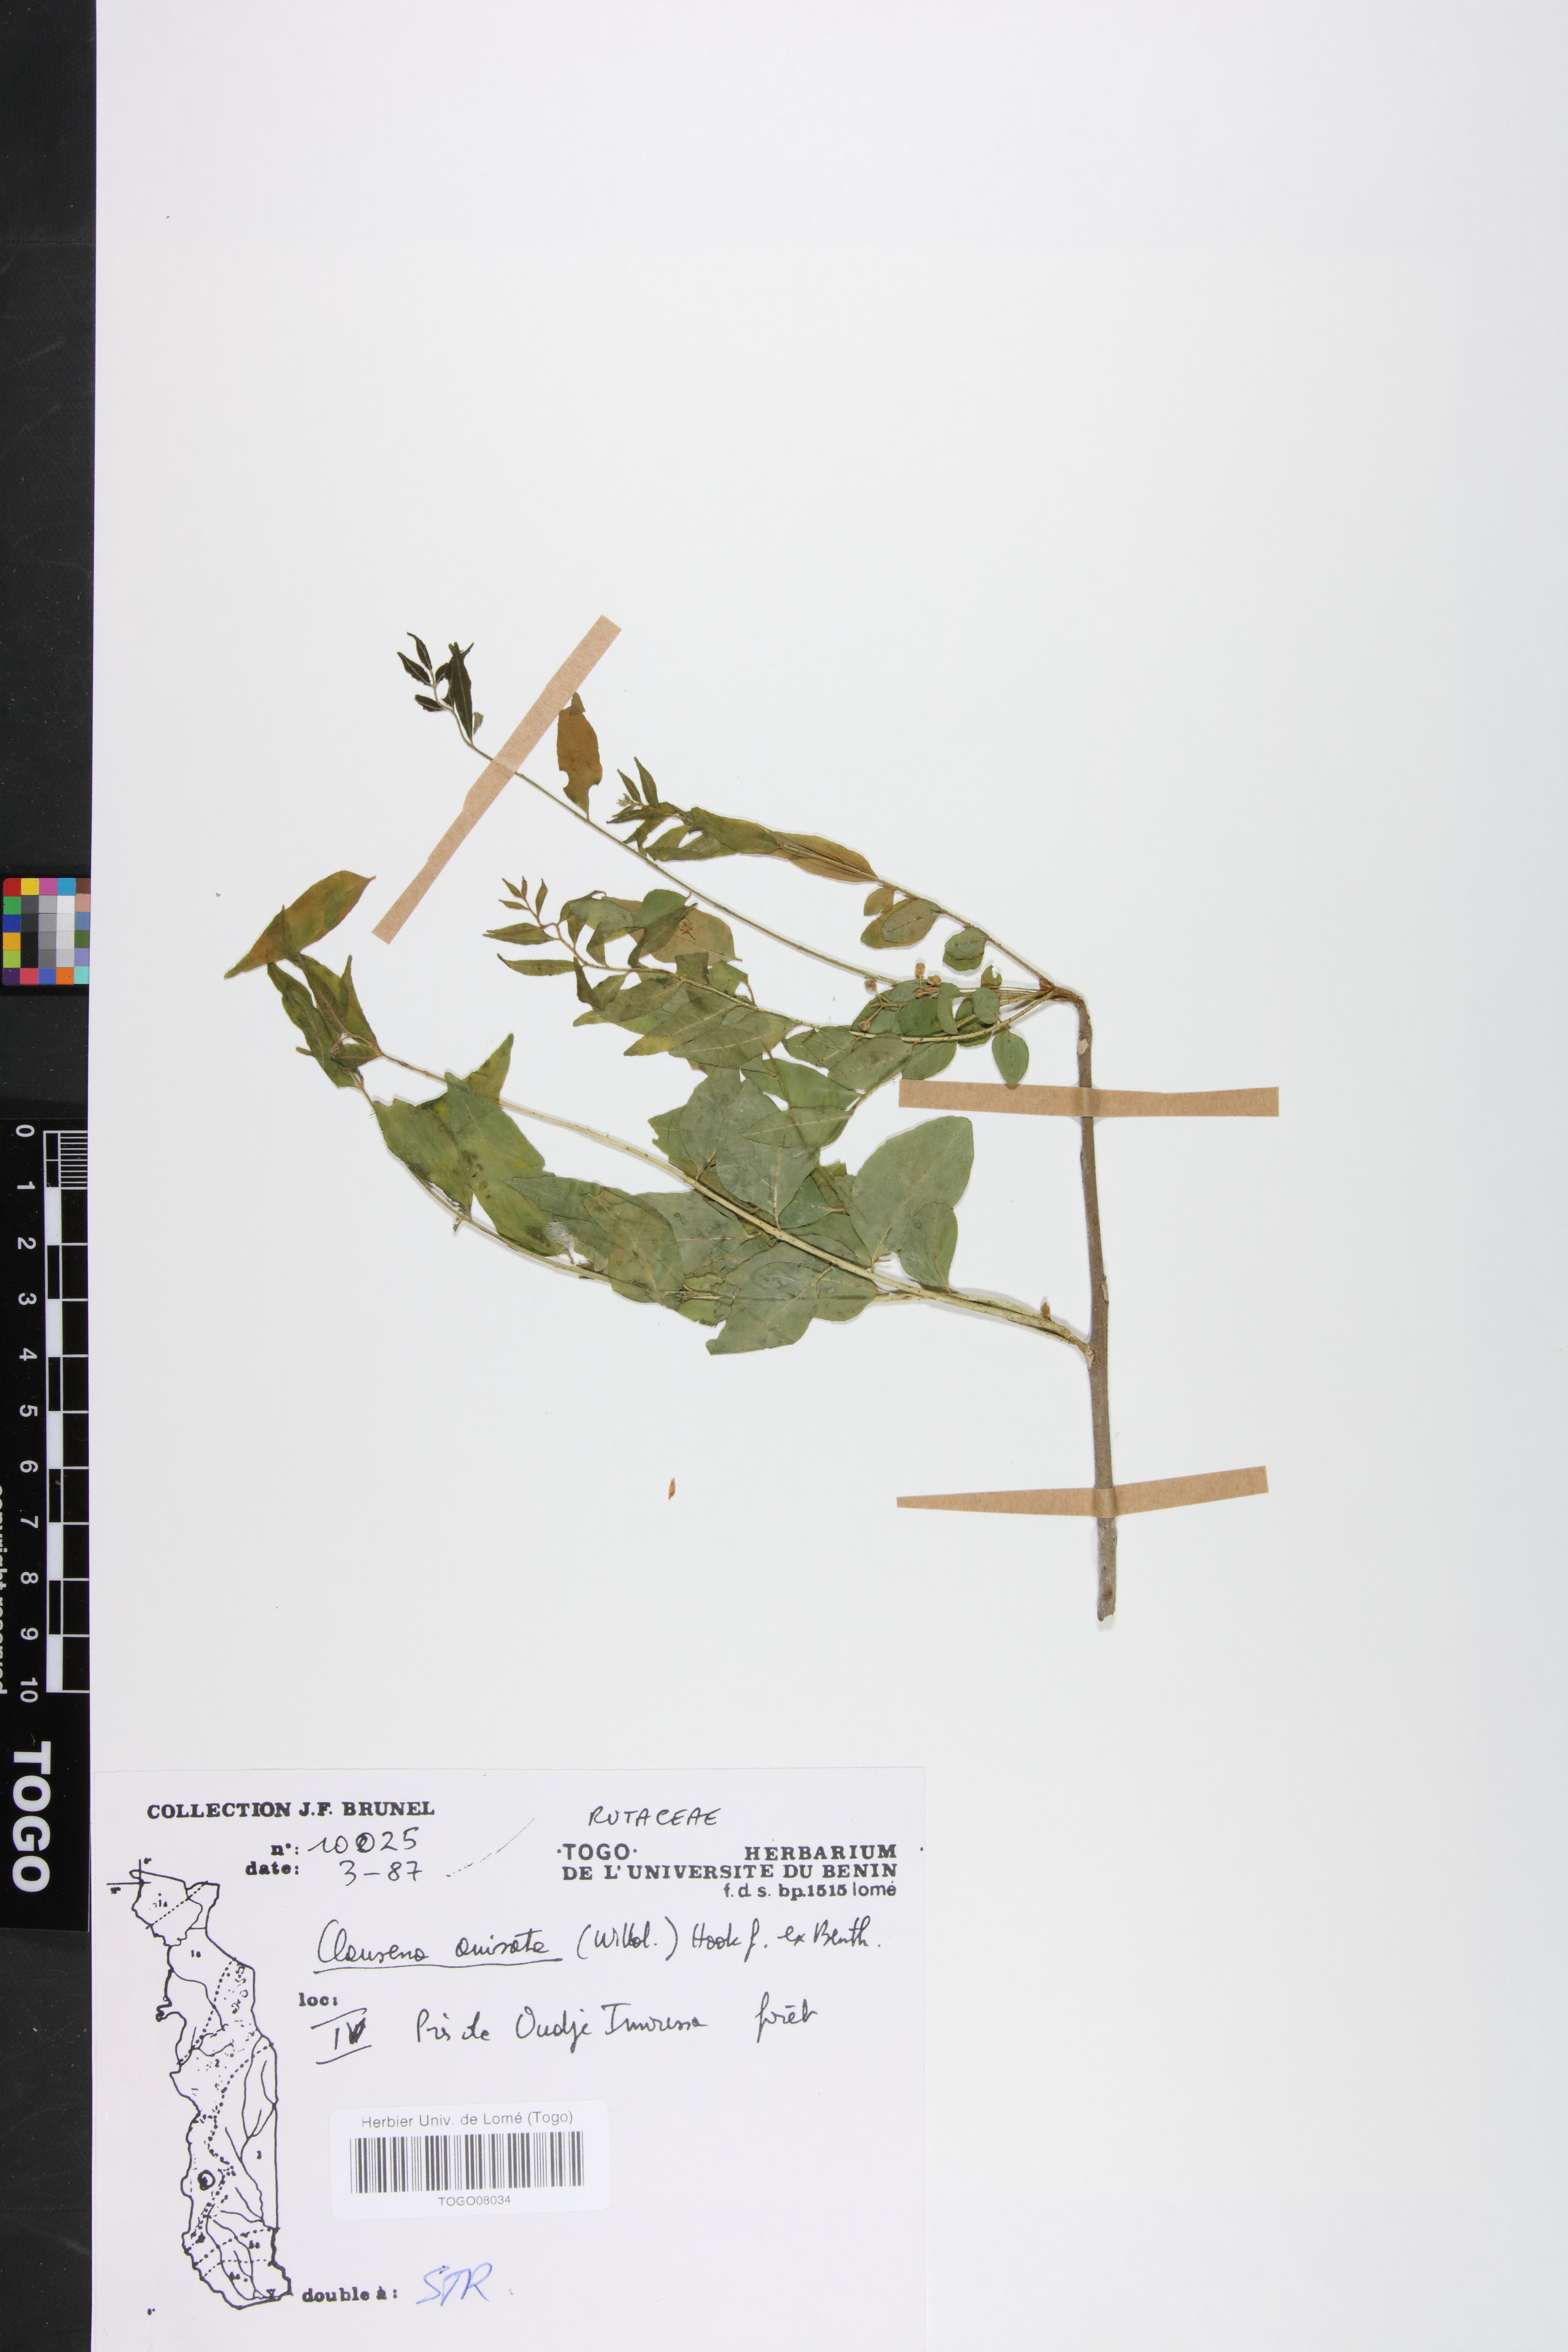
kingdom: Plantae
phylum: Tracheophyta
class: Magnoliopsida
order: Sapindales
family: Rutaceae
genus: Clausena
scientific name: Clausena anisata
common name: Horsewood
